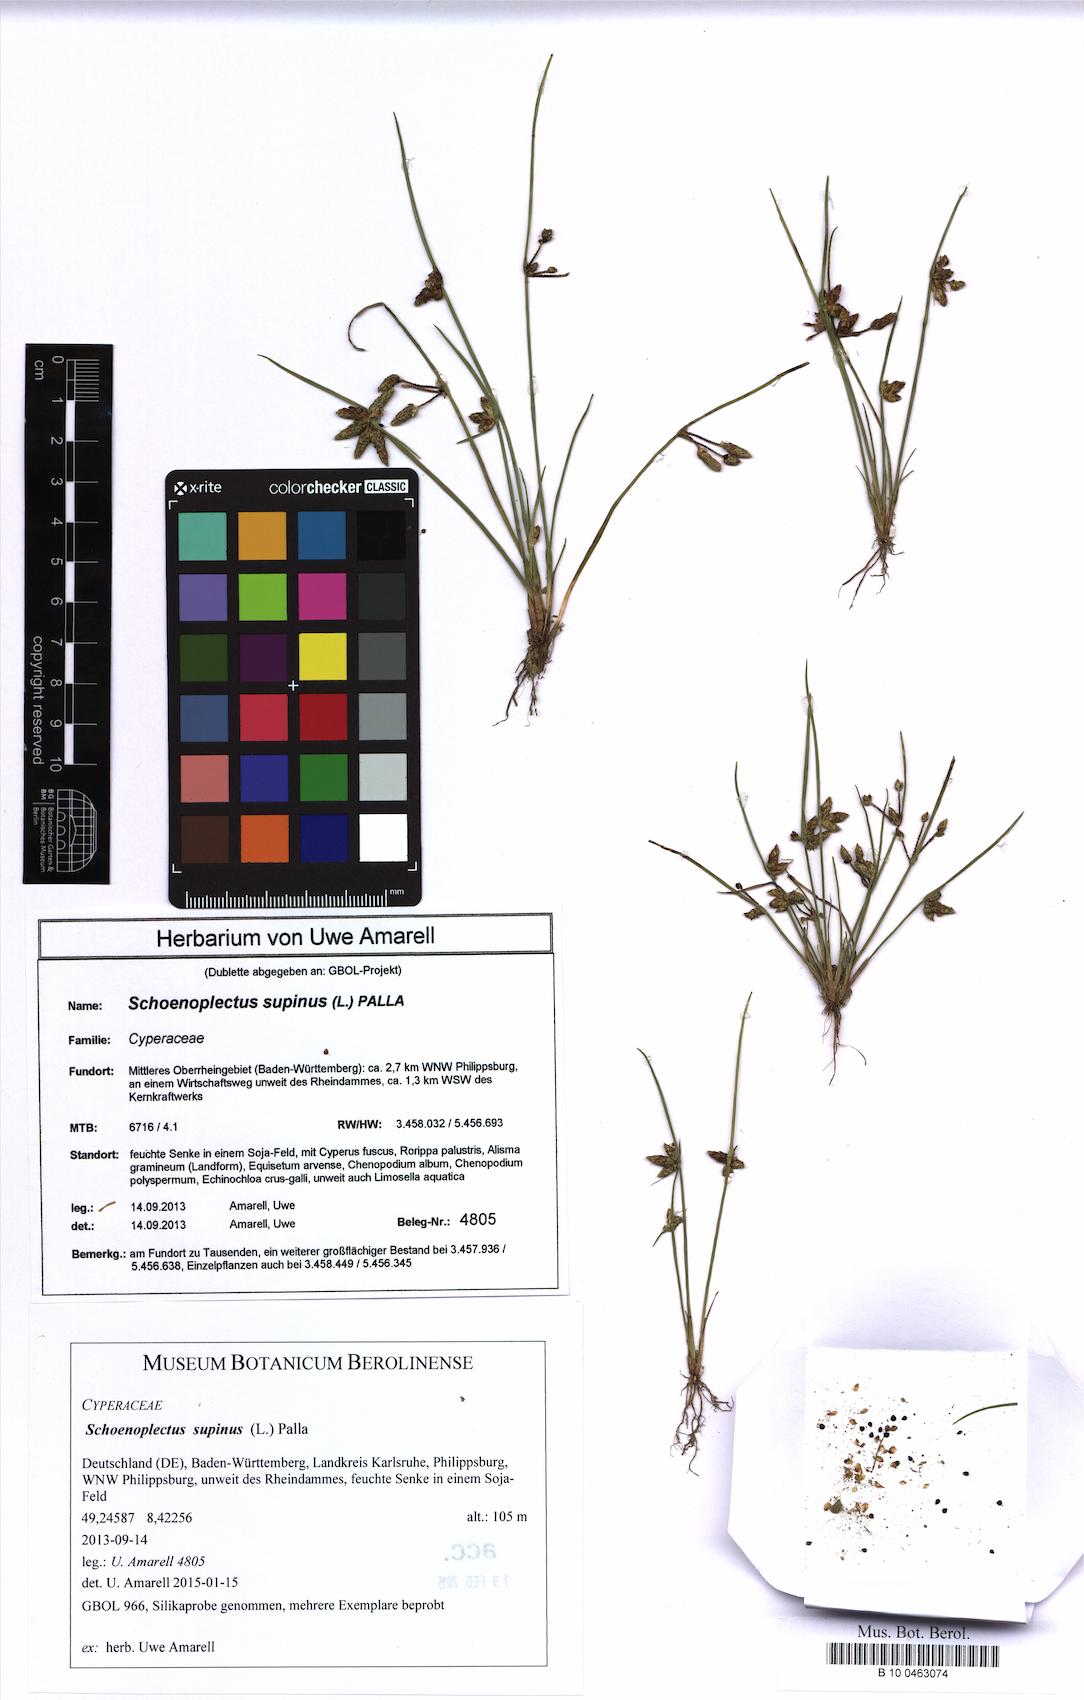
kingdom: Plantae
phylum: Tracheophyta
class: Liliopsida
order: Poales
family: Cyperaceae
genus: Schoenoplectiella
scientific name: Schoenoplectiella supina
